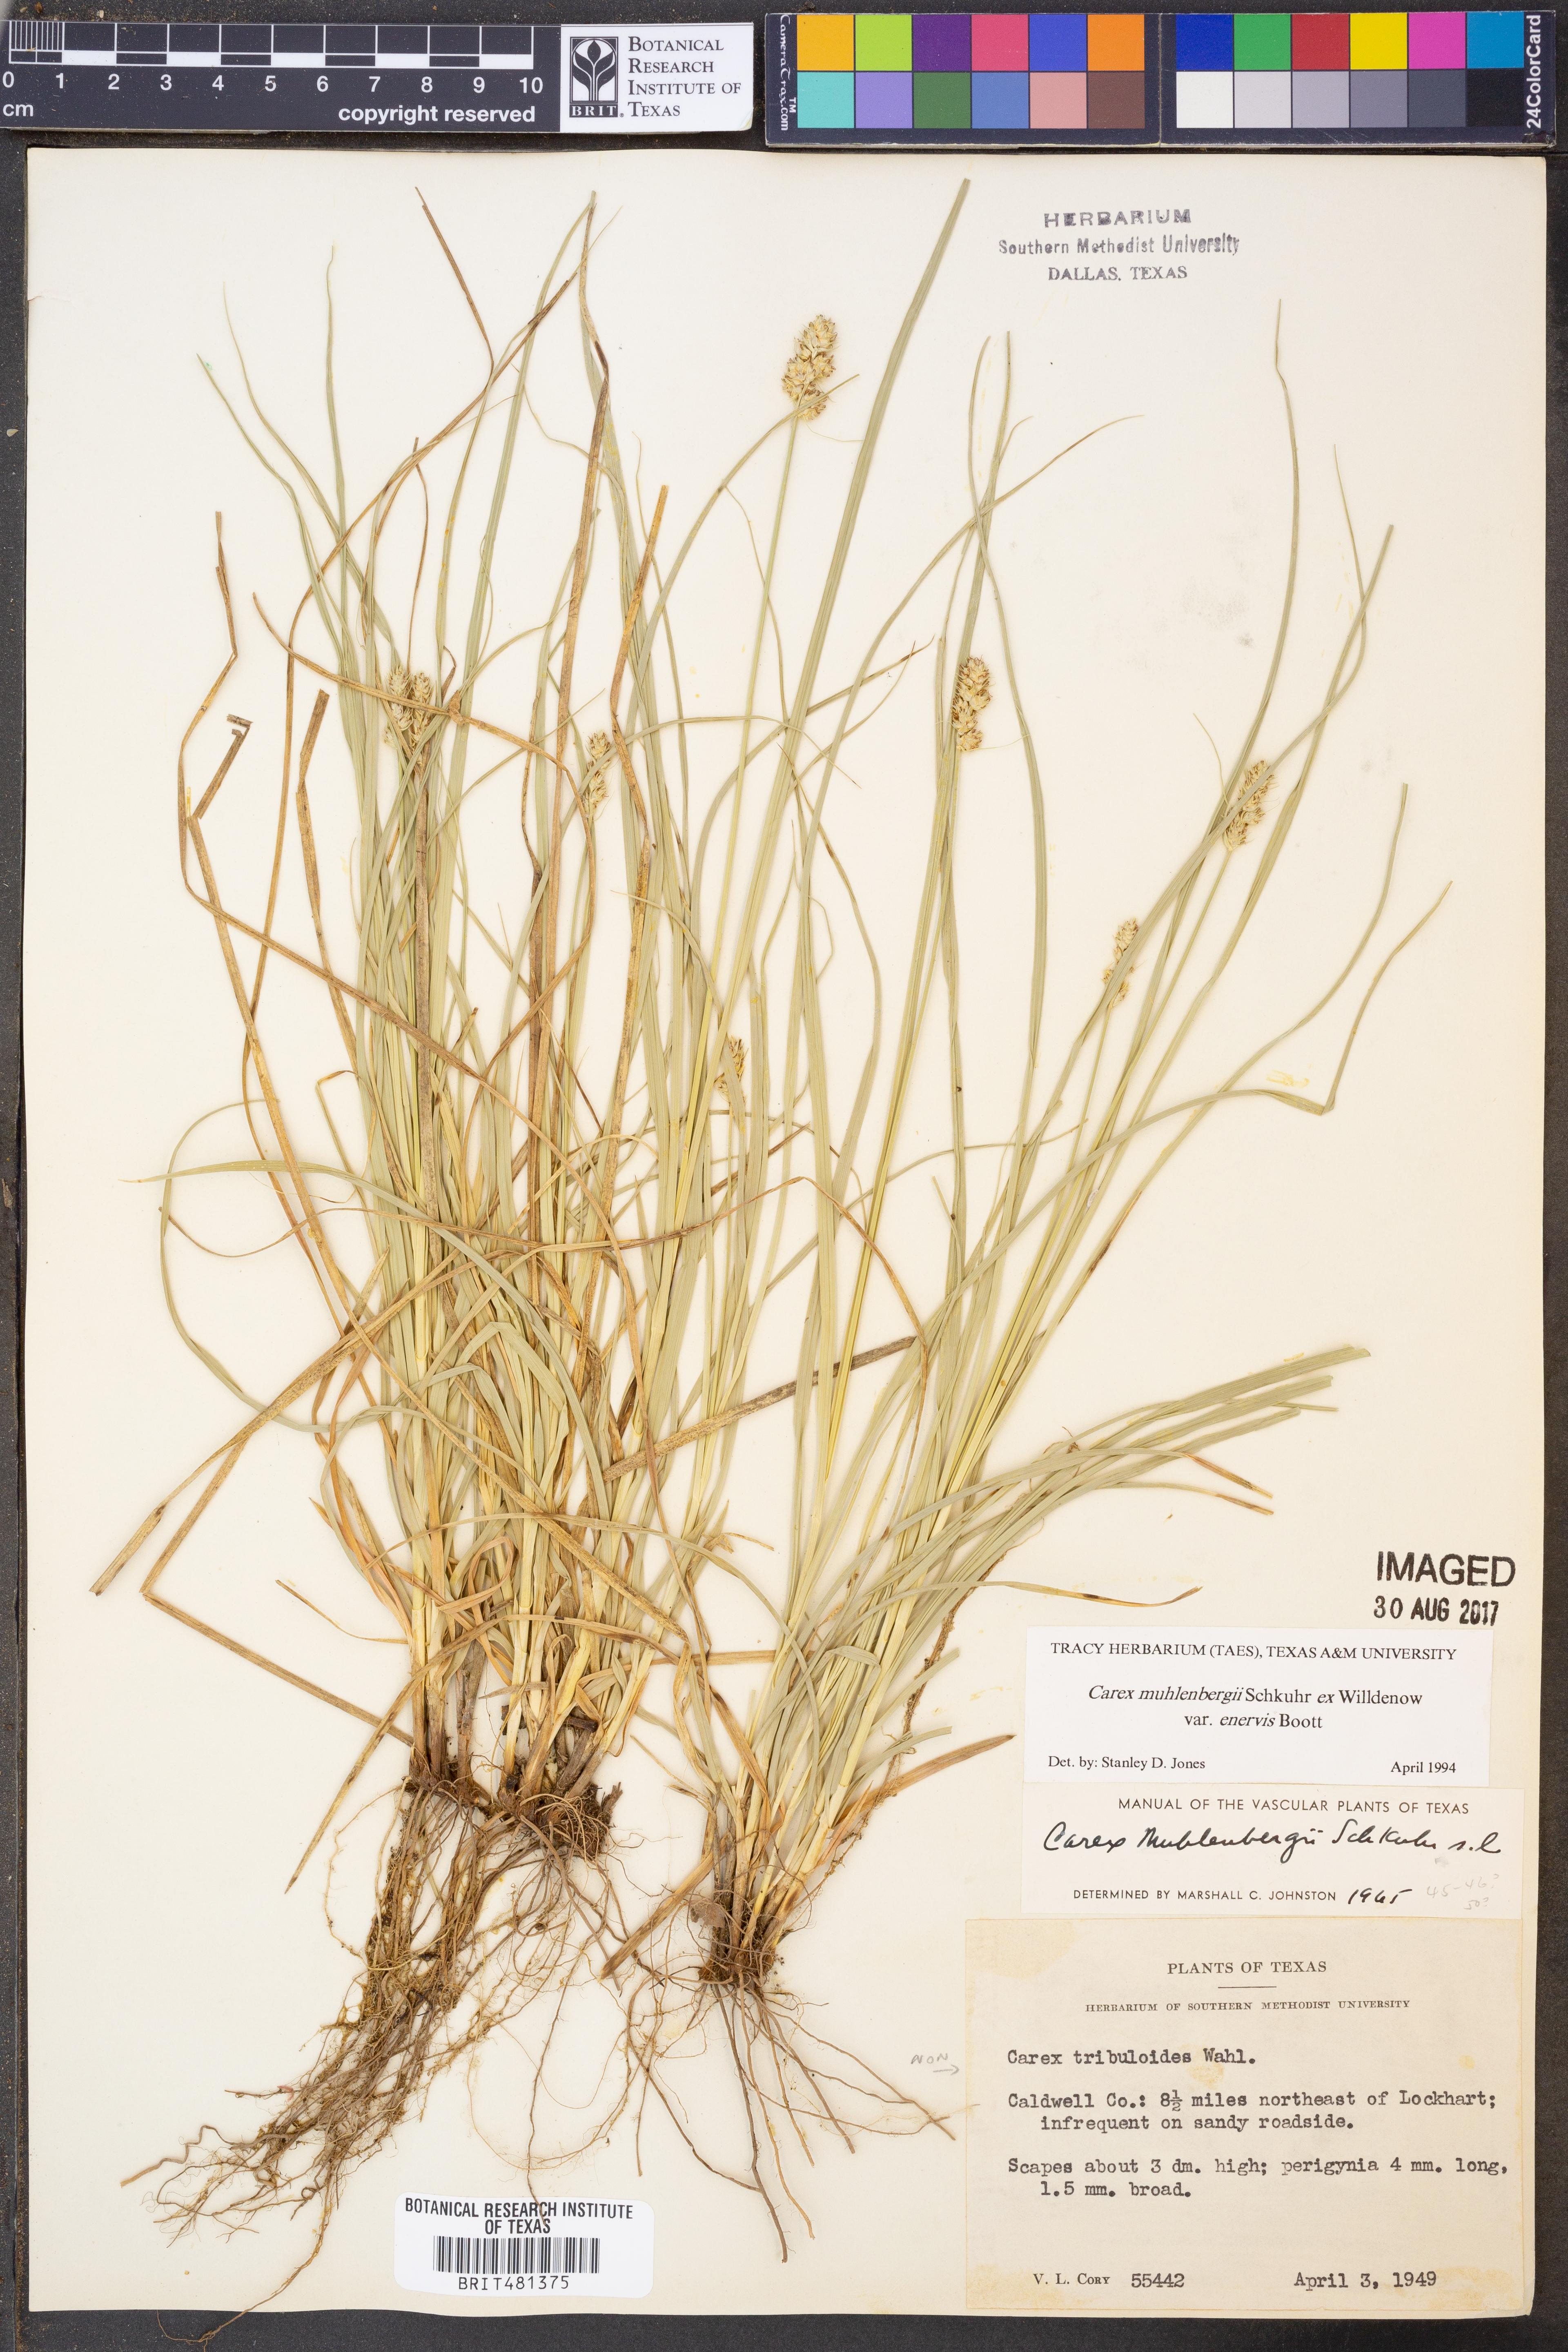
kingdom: Plantae
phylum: Tracheophyta
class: Liliopsida
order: Poales
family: Cyperaceae
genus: Carex
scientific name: Carex vulpinoidea
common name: American fox-sedge
